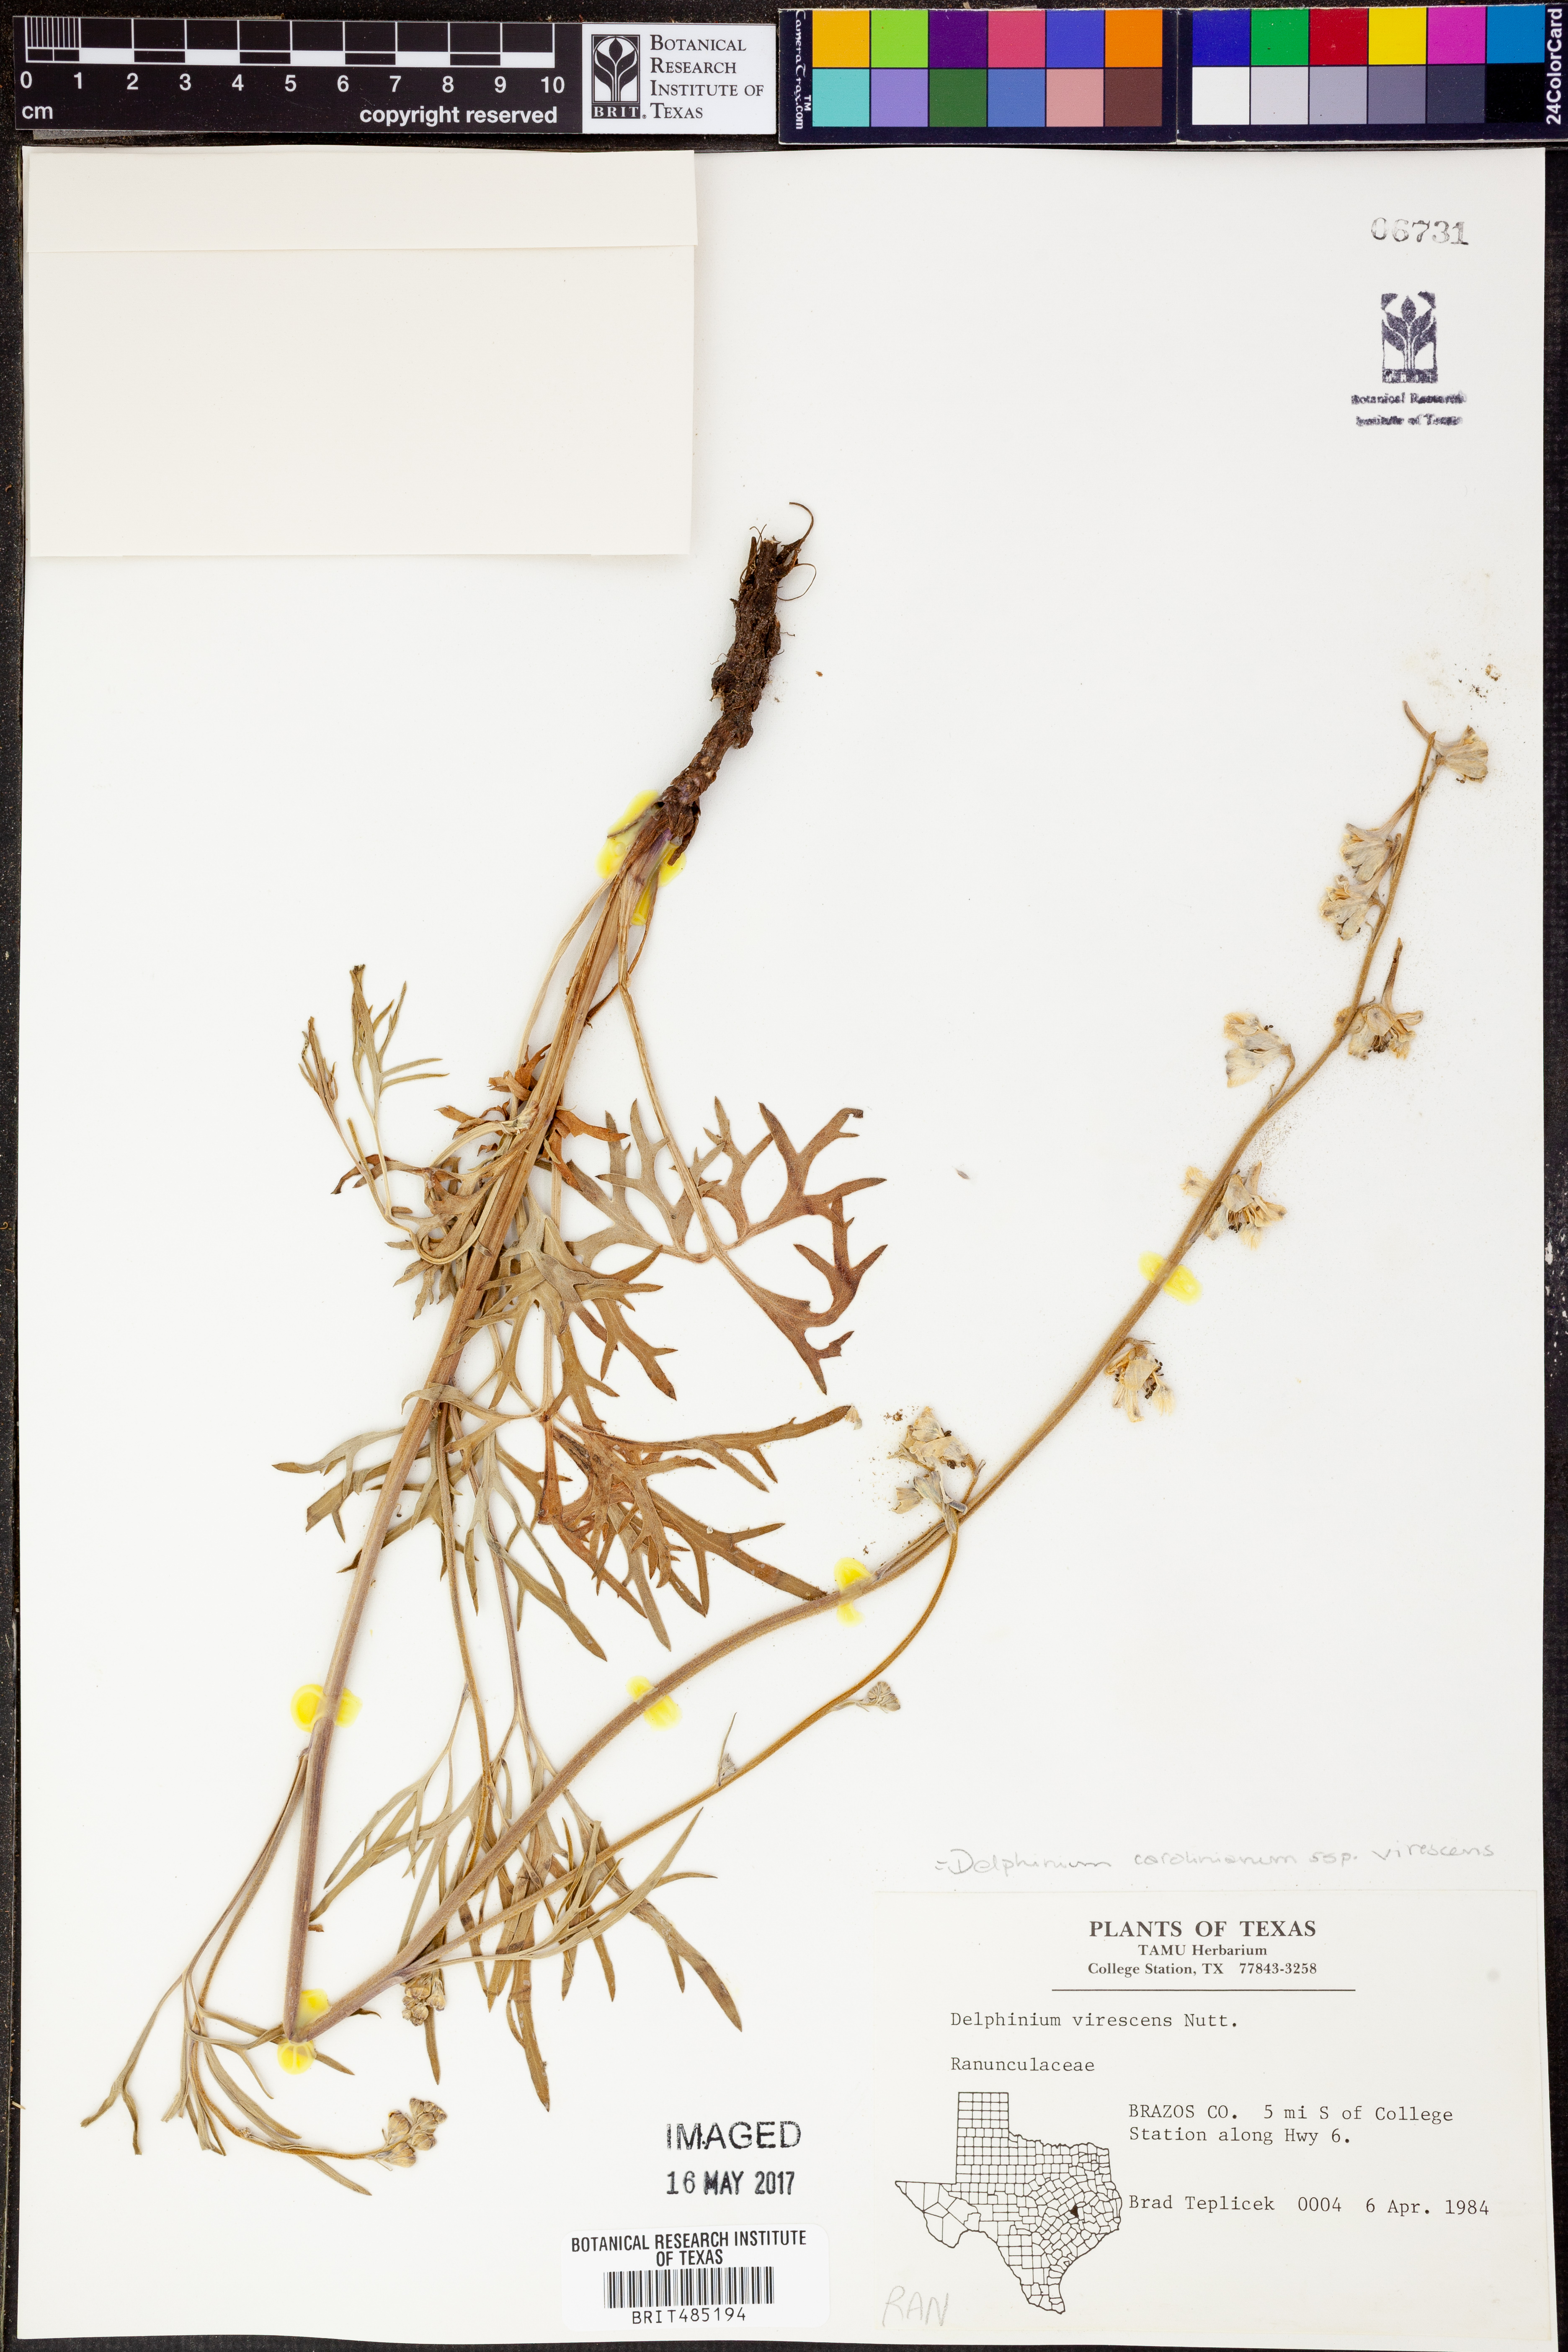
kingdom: Plantae
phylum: Tracheophyta
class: Magnoliopsida
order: Ranunculales
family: Ranunculaceae
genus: Delphinium
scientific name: Delphinium carolinianum
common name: Carolina larkspur
